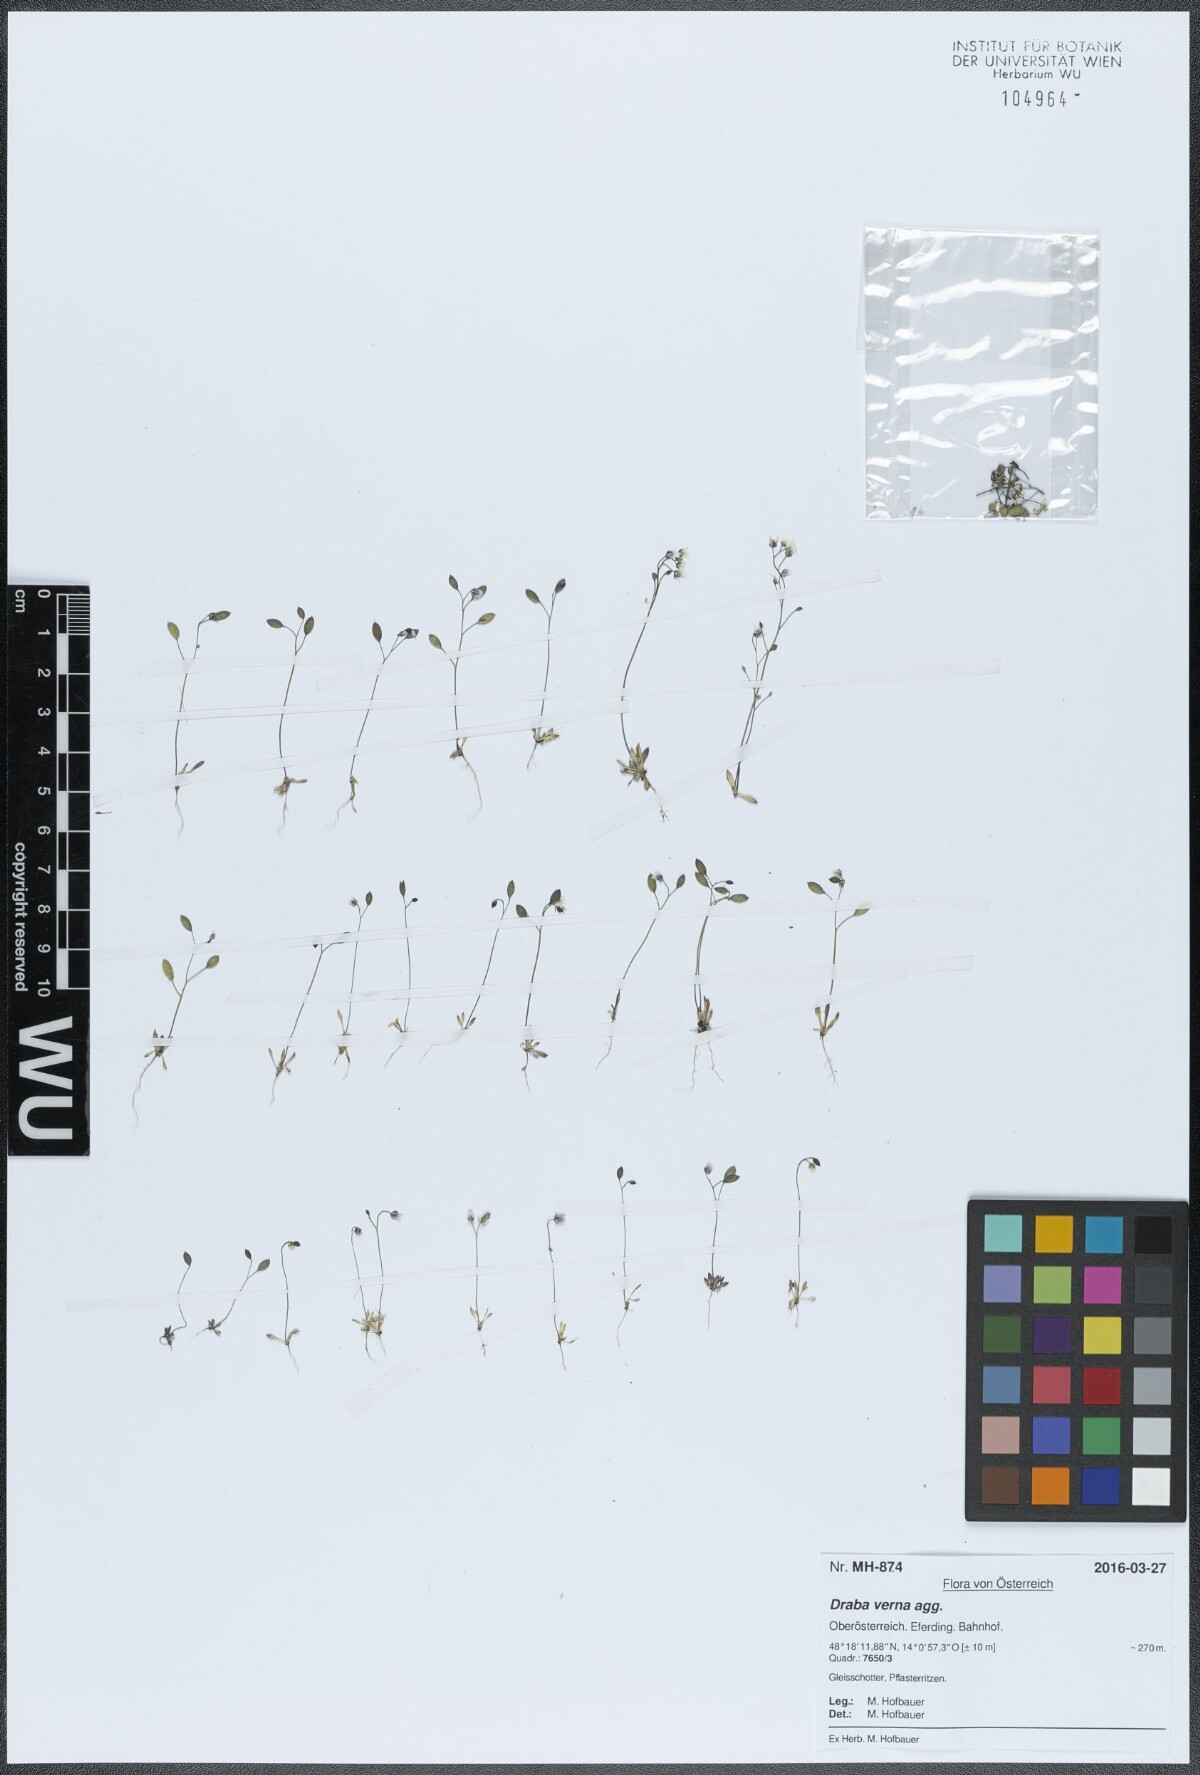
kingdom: Plantae
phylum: Tracheophyta
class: Magnoliopsida
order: Brassicales
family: Brassicaceae
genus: Draba
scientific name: Draba verna
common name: Spring draba
